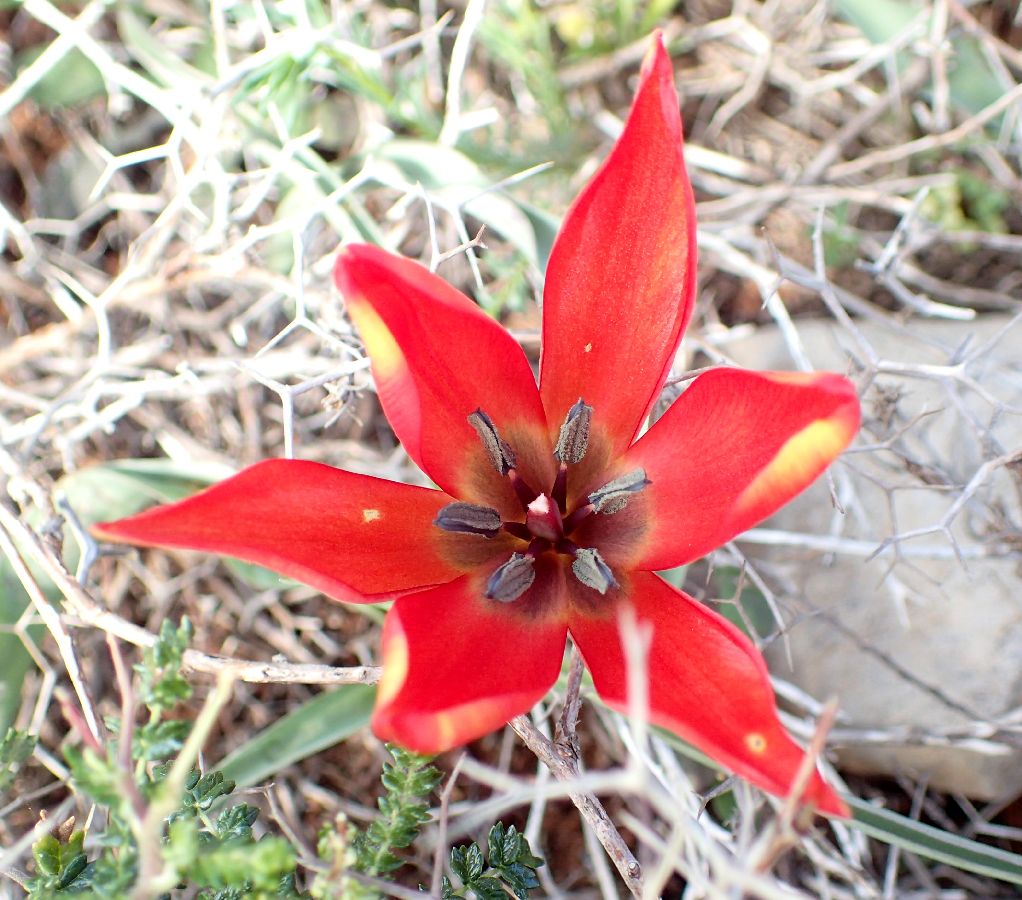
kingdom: Plantae
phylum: Tracheophyta
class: Liliopsida
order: Liliales
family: Liliaceae
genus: Tulipa
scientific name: Tulipa orphanidea
